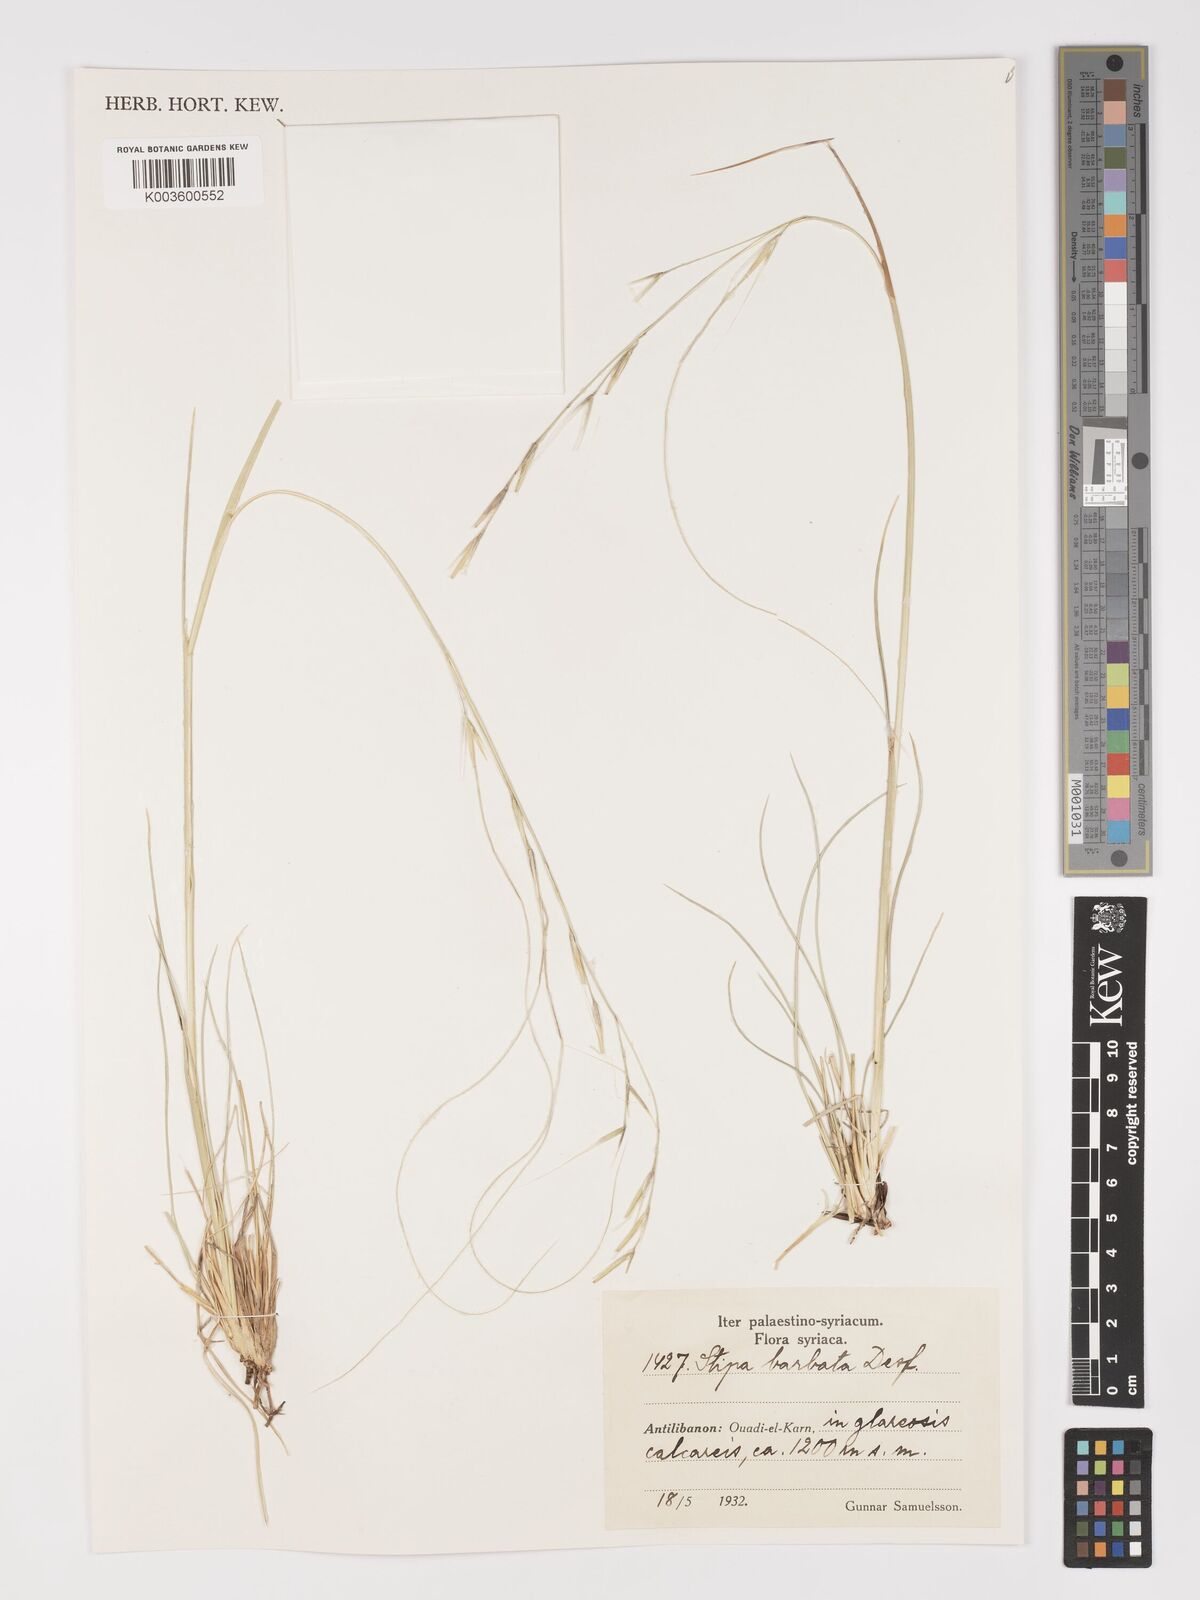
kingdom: Plantae
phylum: Tracheophyta
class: Liliopsida
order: Poales
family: Poaceae
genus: Stipa
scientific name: Stipa barbata
